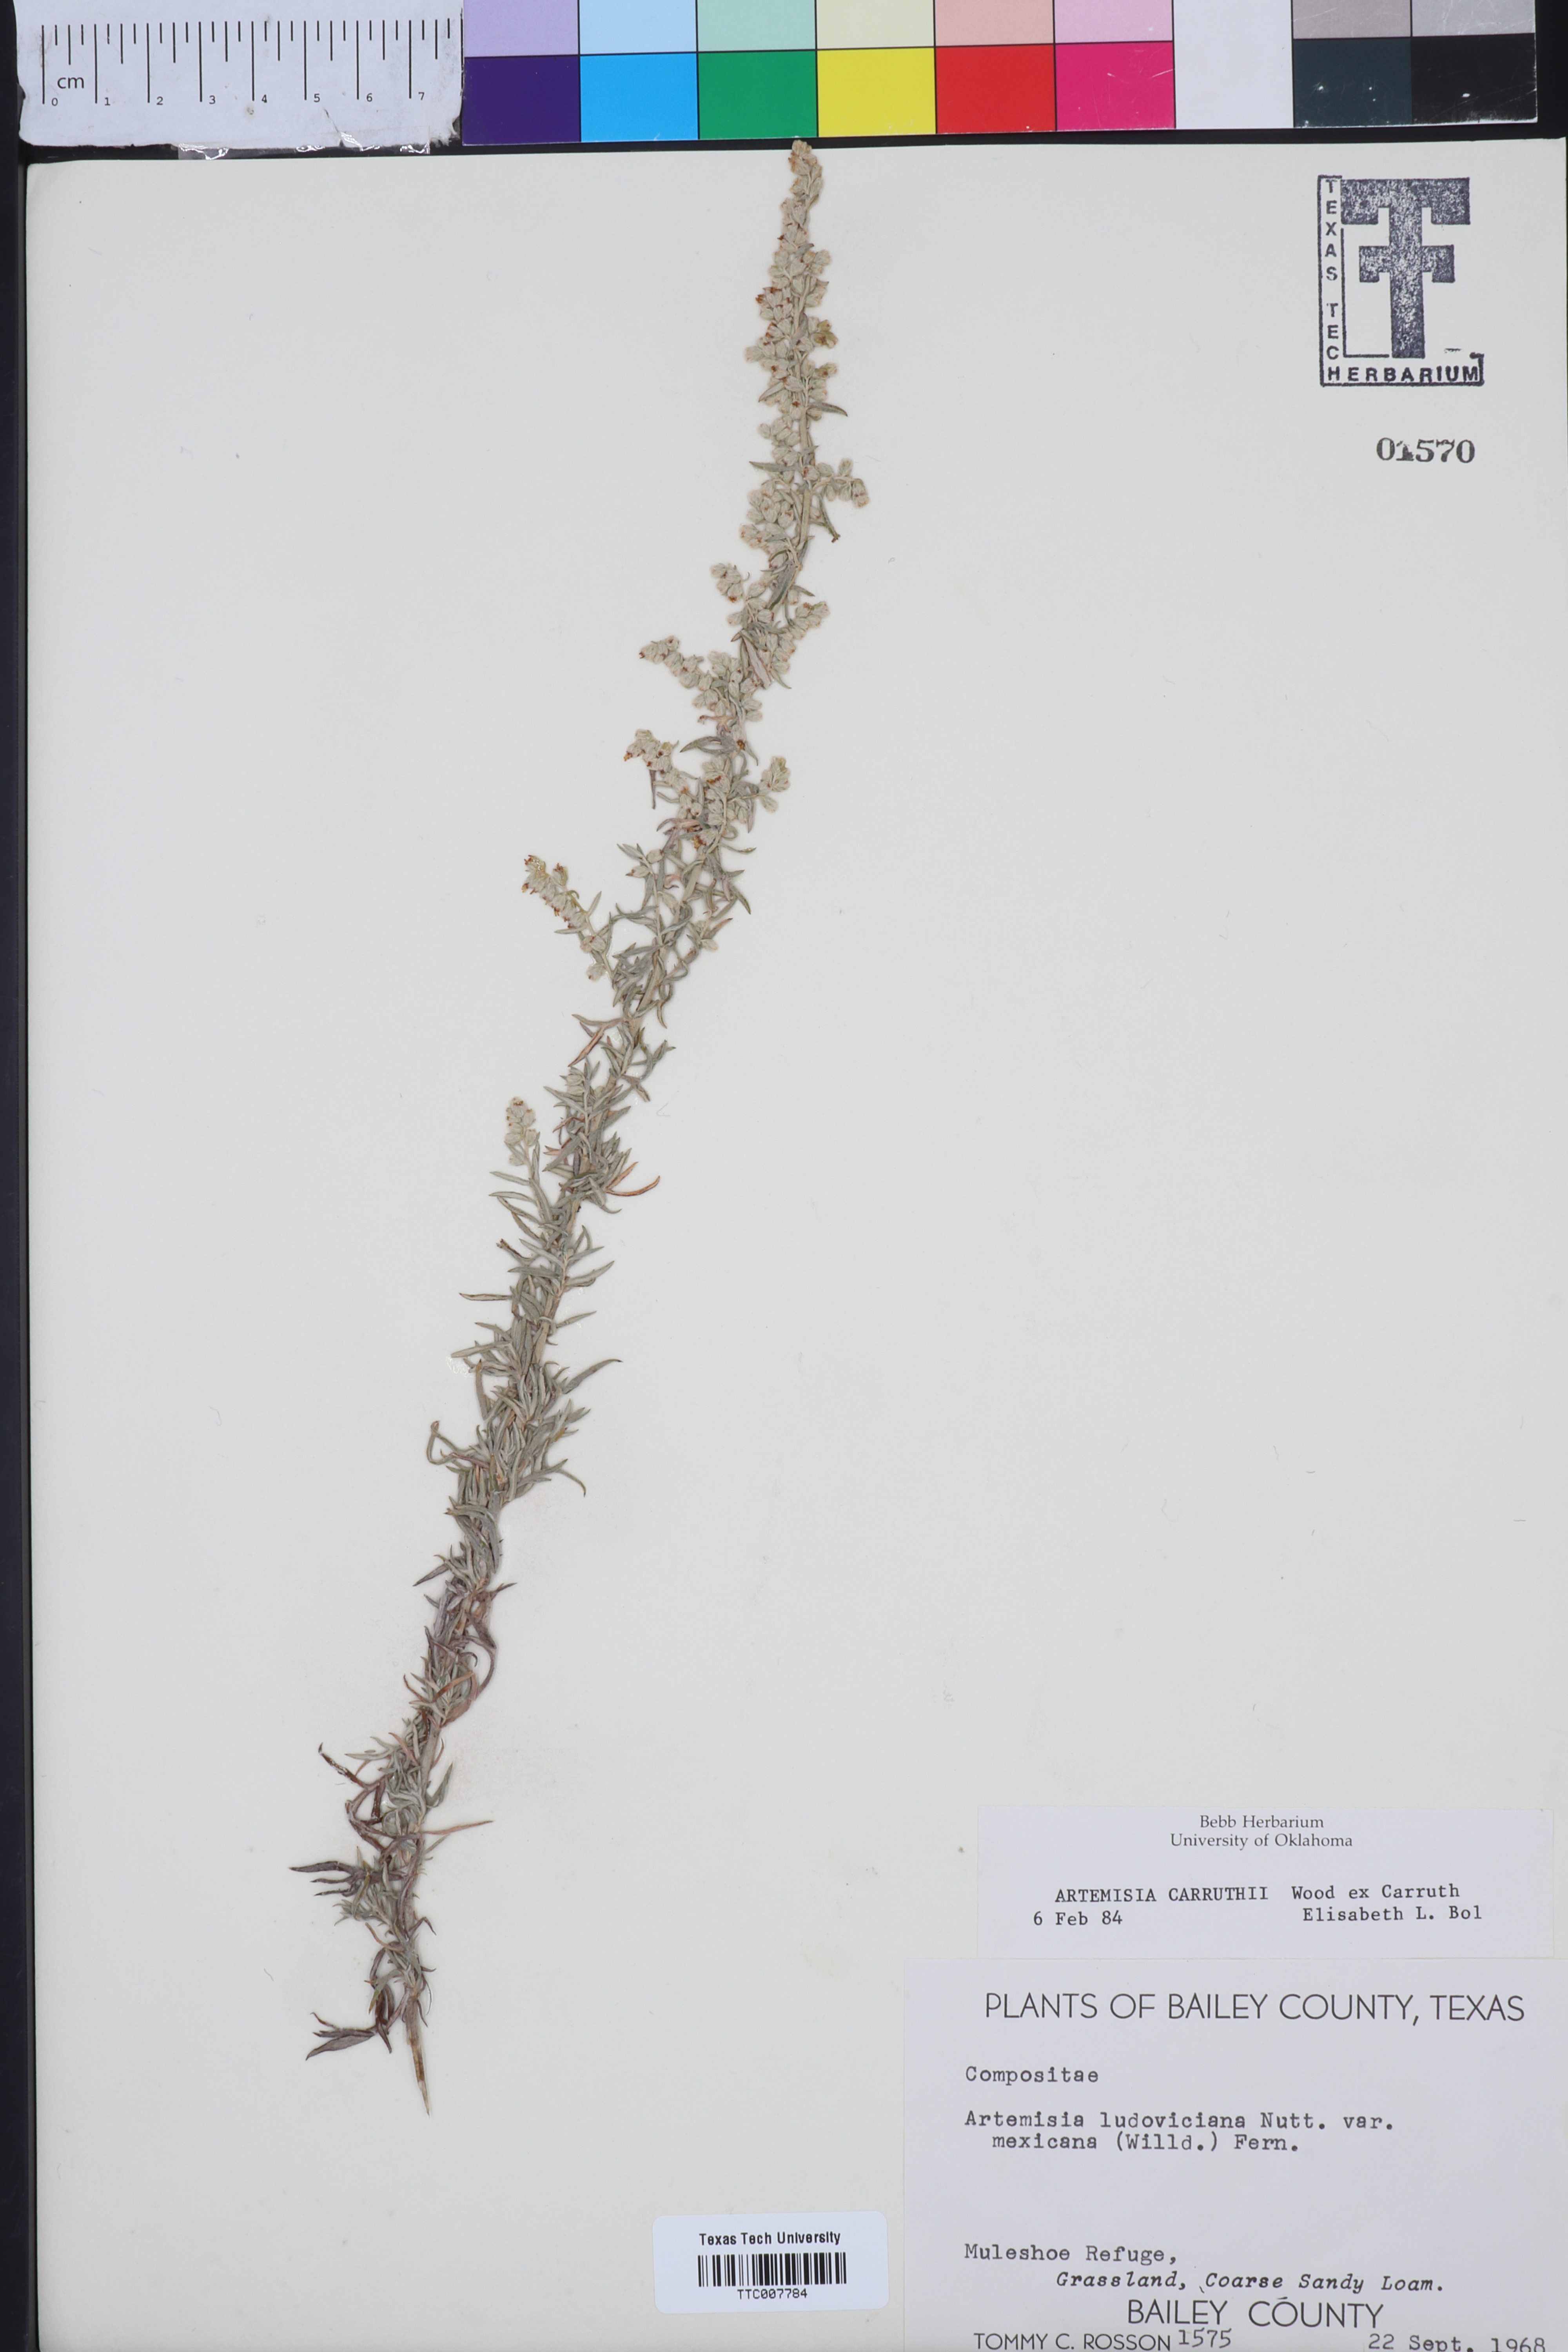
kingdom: Plantae
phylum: Tracheophyta
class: Magnoliopsida
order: Asterales
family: Asteraceae
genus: Artemisia
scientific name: Artemisia carruthii
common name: Carruth wormwood
